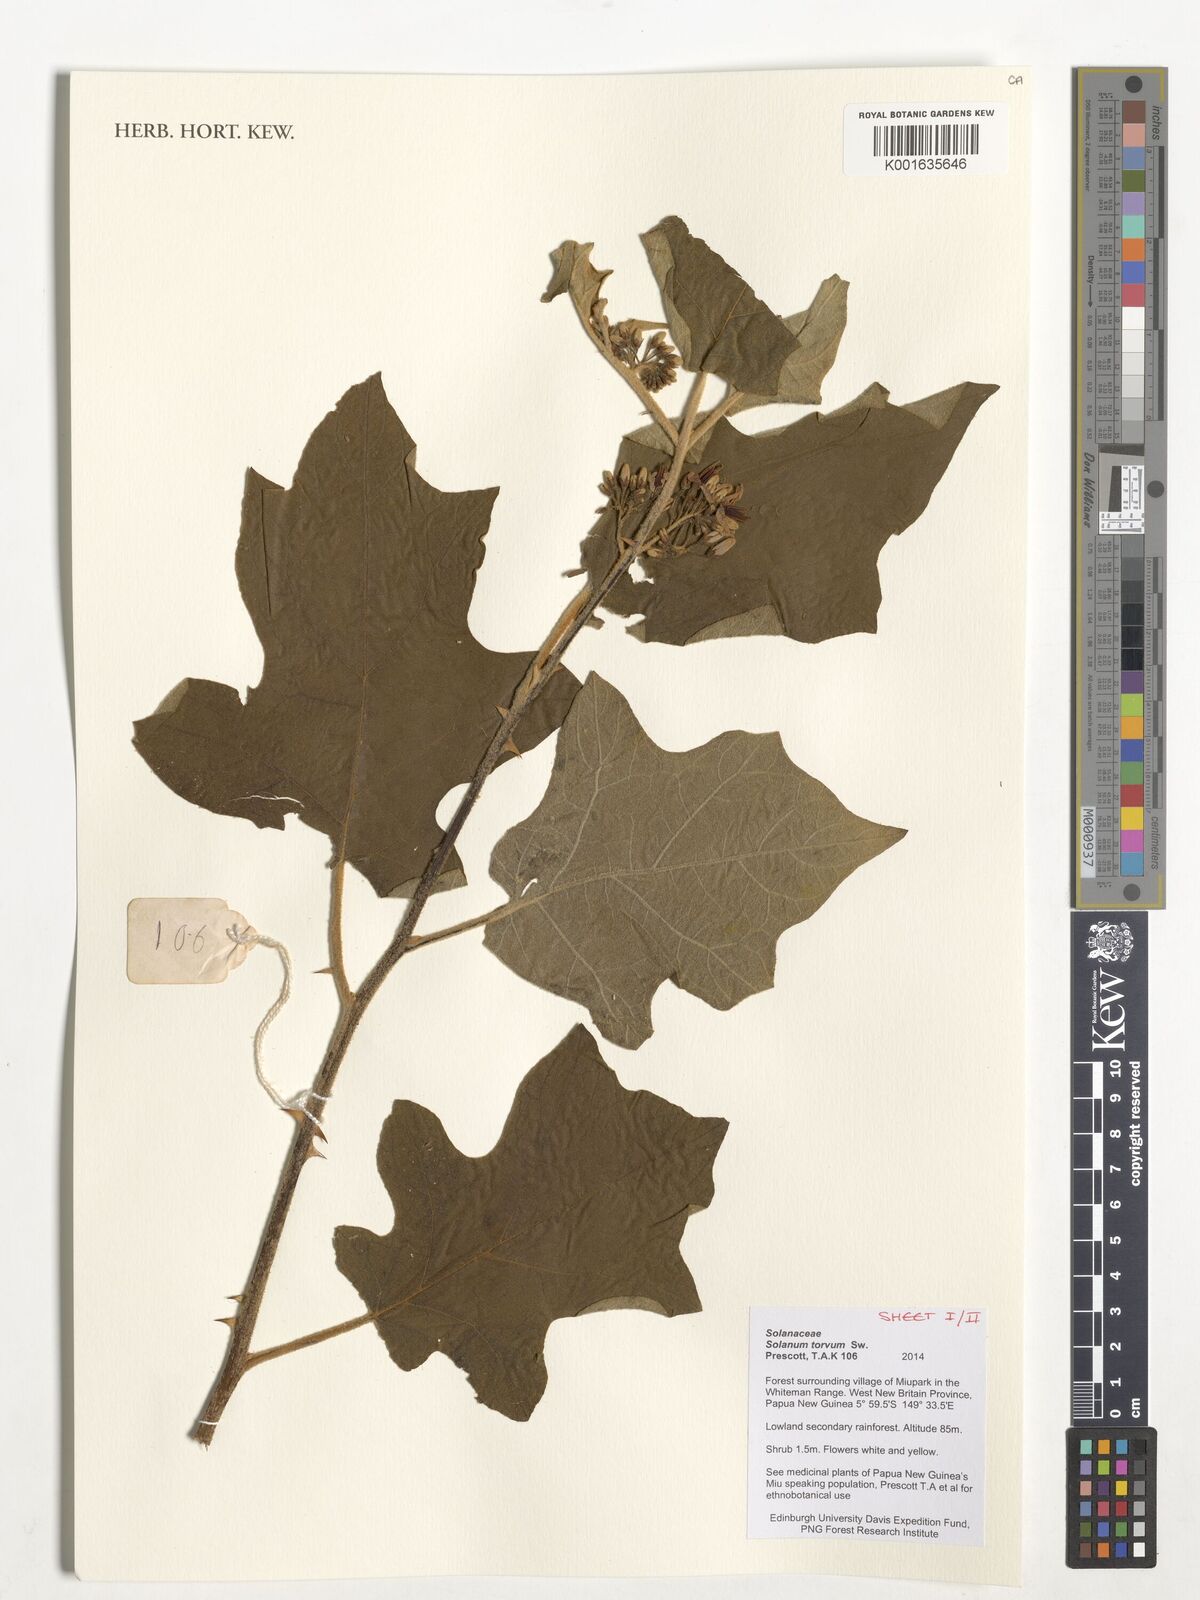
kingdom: Plantae
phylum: Tracheophyta
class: Magnoliopsida
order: Solanales
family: Solanaceae
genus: Solanum
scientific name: Solanum torvum
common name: Turkey berry
